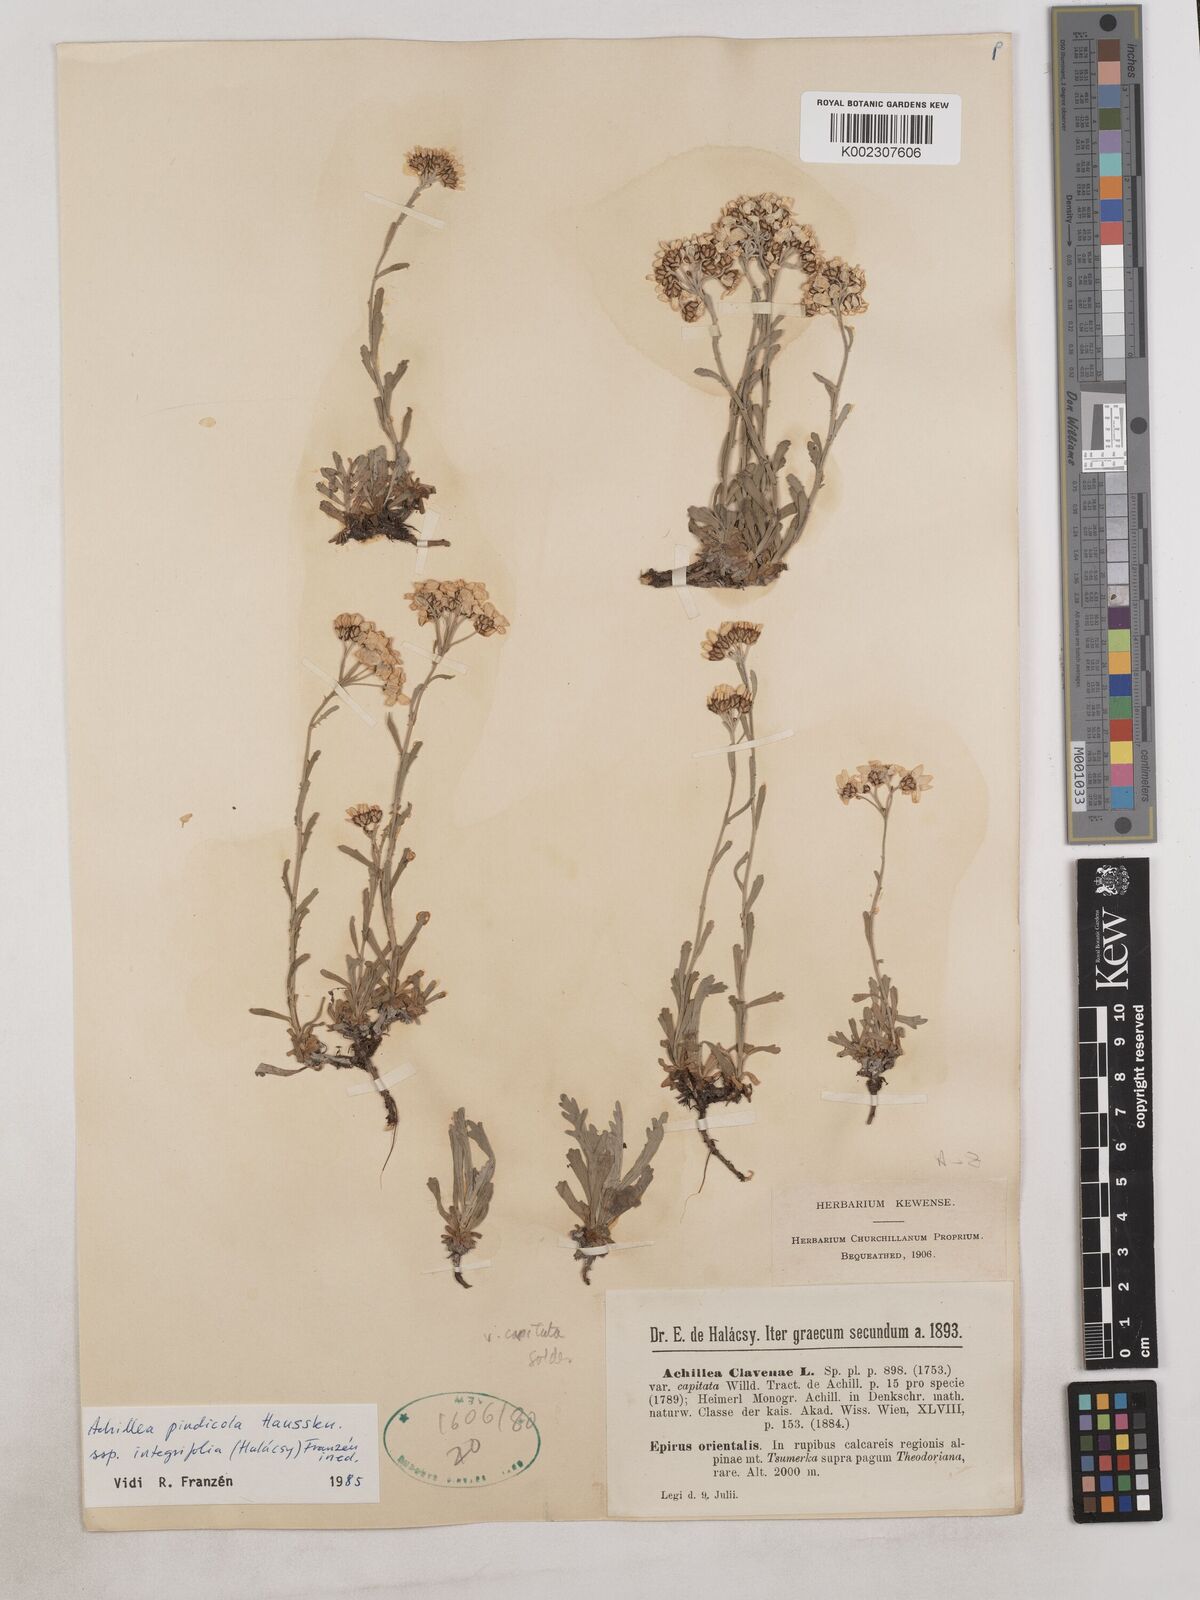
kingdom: Plantae
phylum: Tracheophyta
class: Magnoliopsida
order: Asterales
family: Asteraceae
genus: Achillea
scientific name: Achillea pindicola
